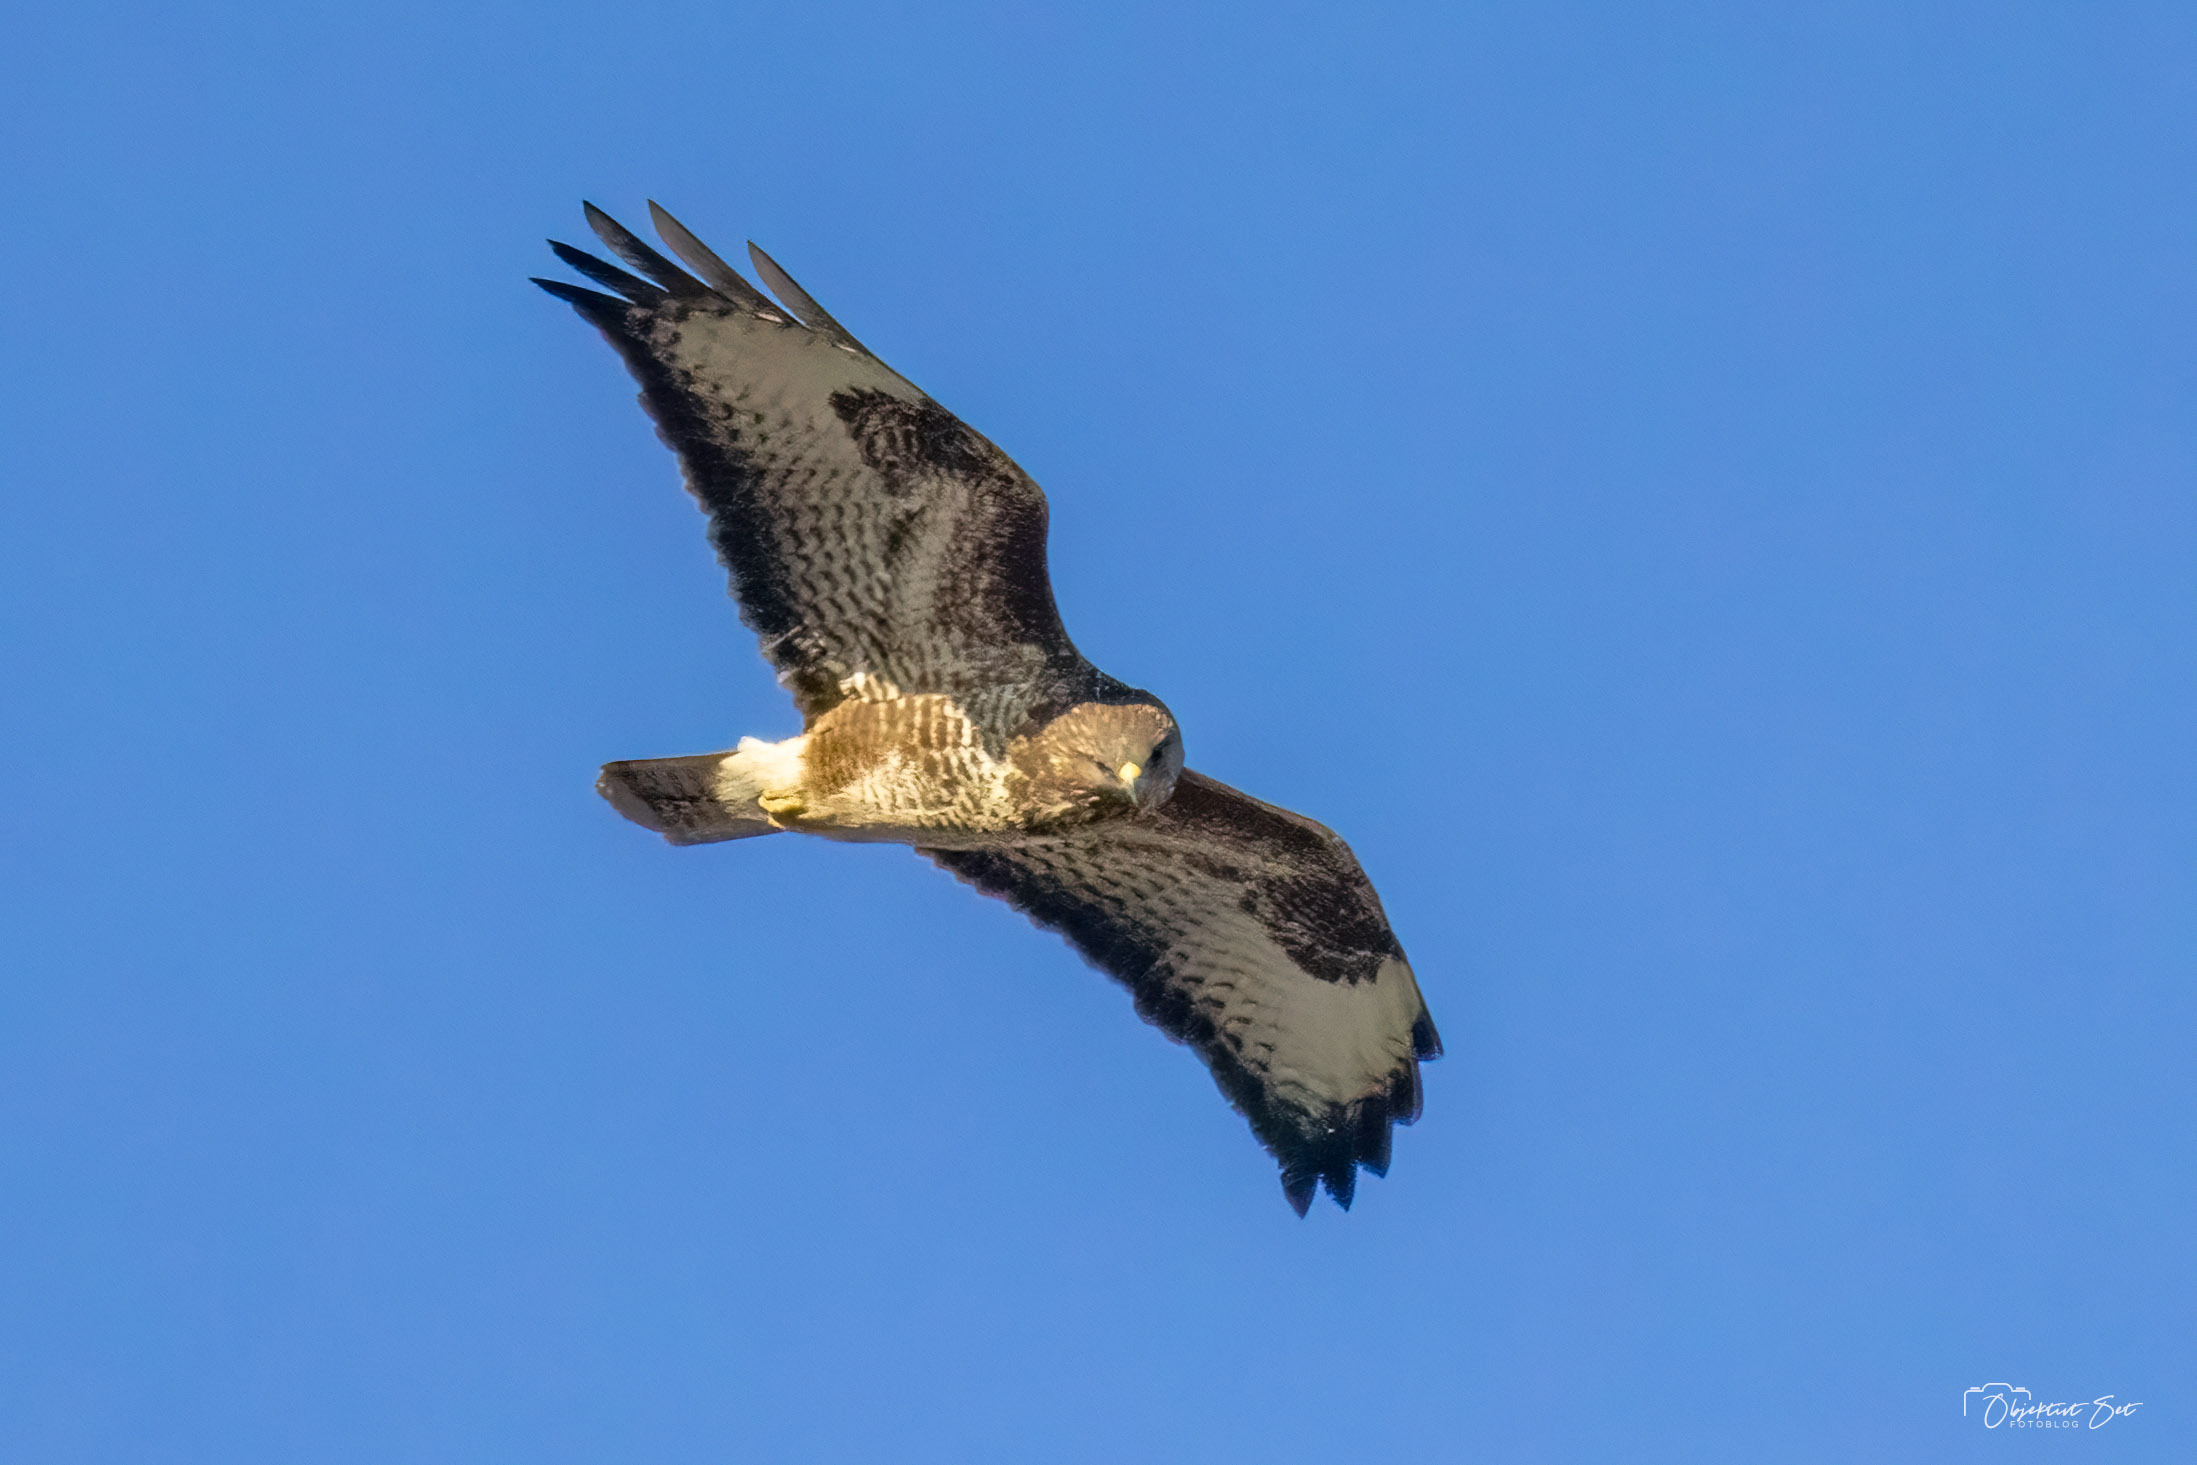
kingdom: Animalia
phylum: Chordata
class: Aves
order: Accipitriformes
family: Accipitridae
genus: Buteo
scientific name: Buteo buteo
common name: Musvåge
